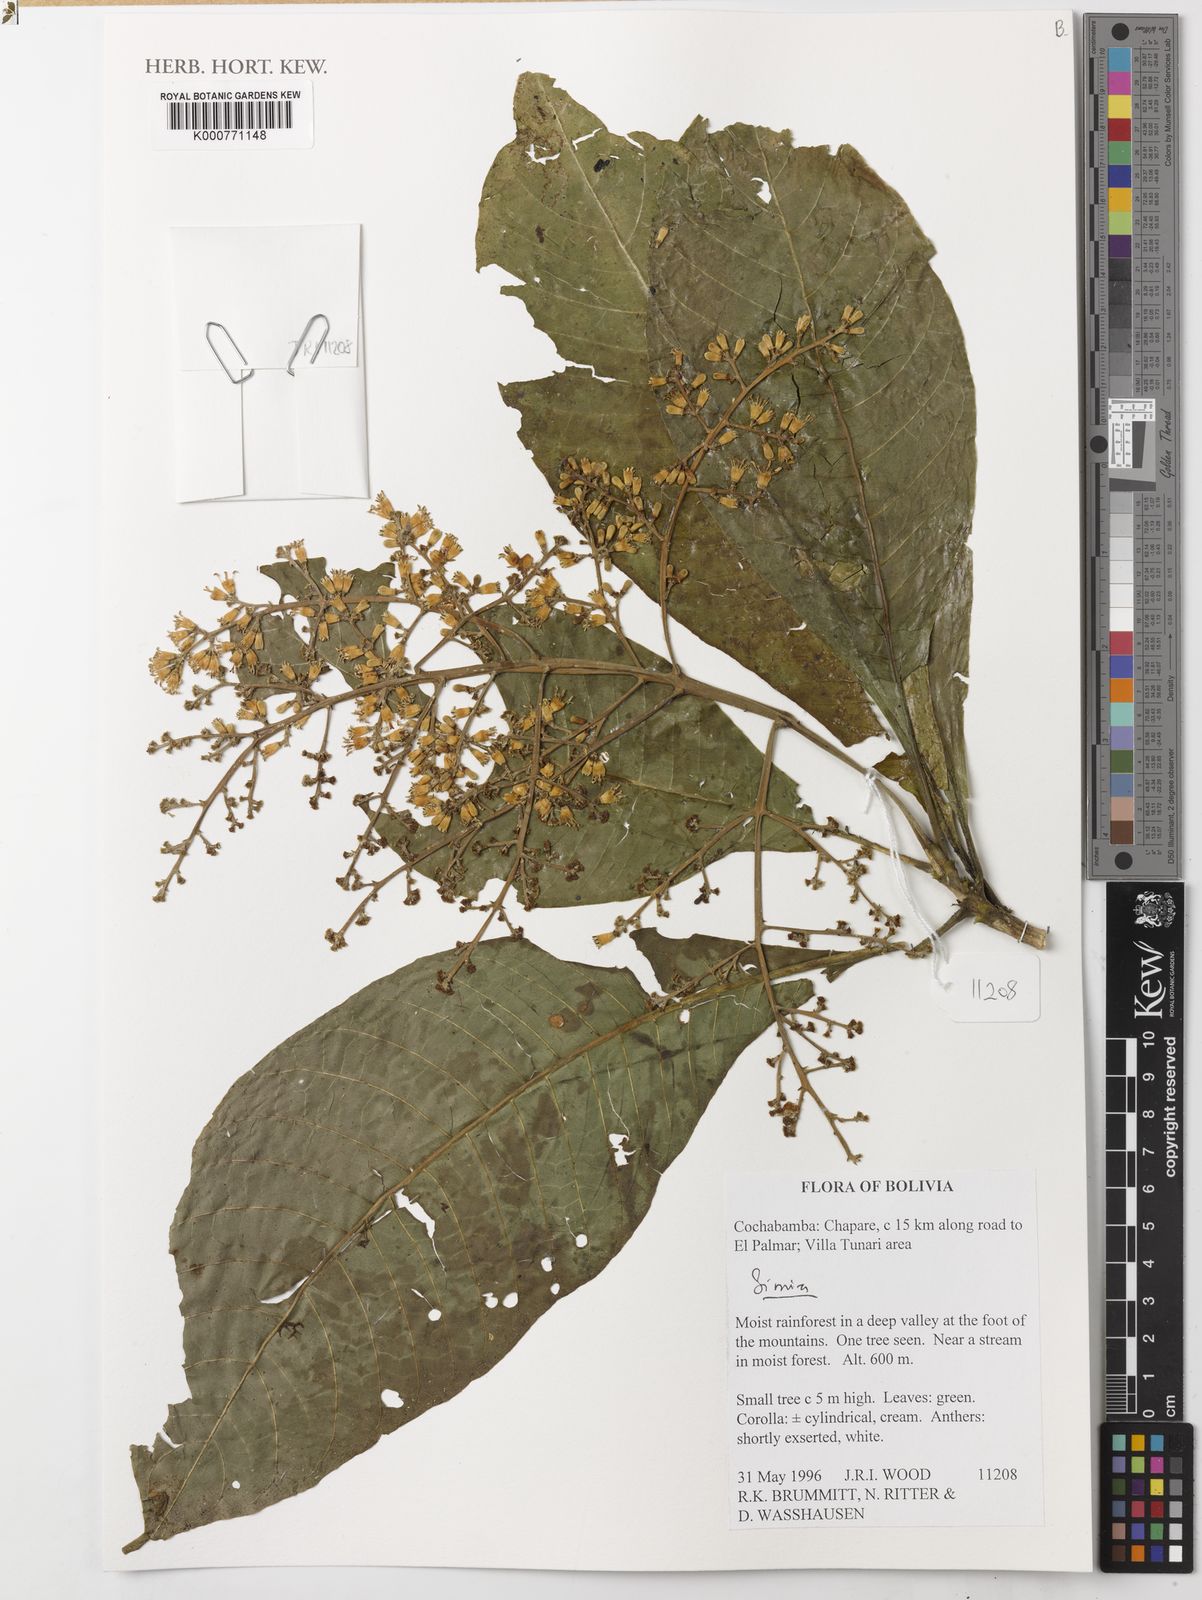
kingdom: Plantae
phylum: Tracheophyta
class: Magnoliopsida
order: Gentianales
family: Rubiaceae
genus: Simira
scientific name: Simira
